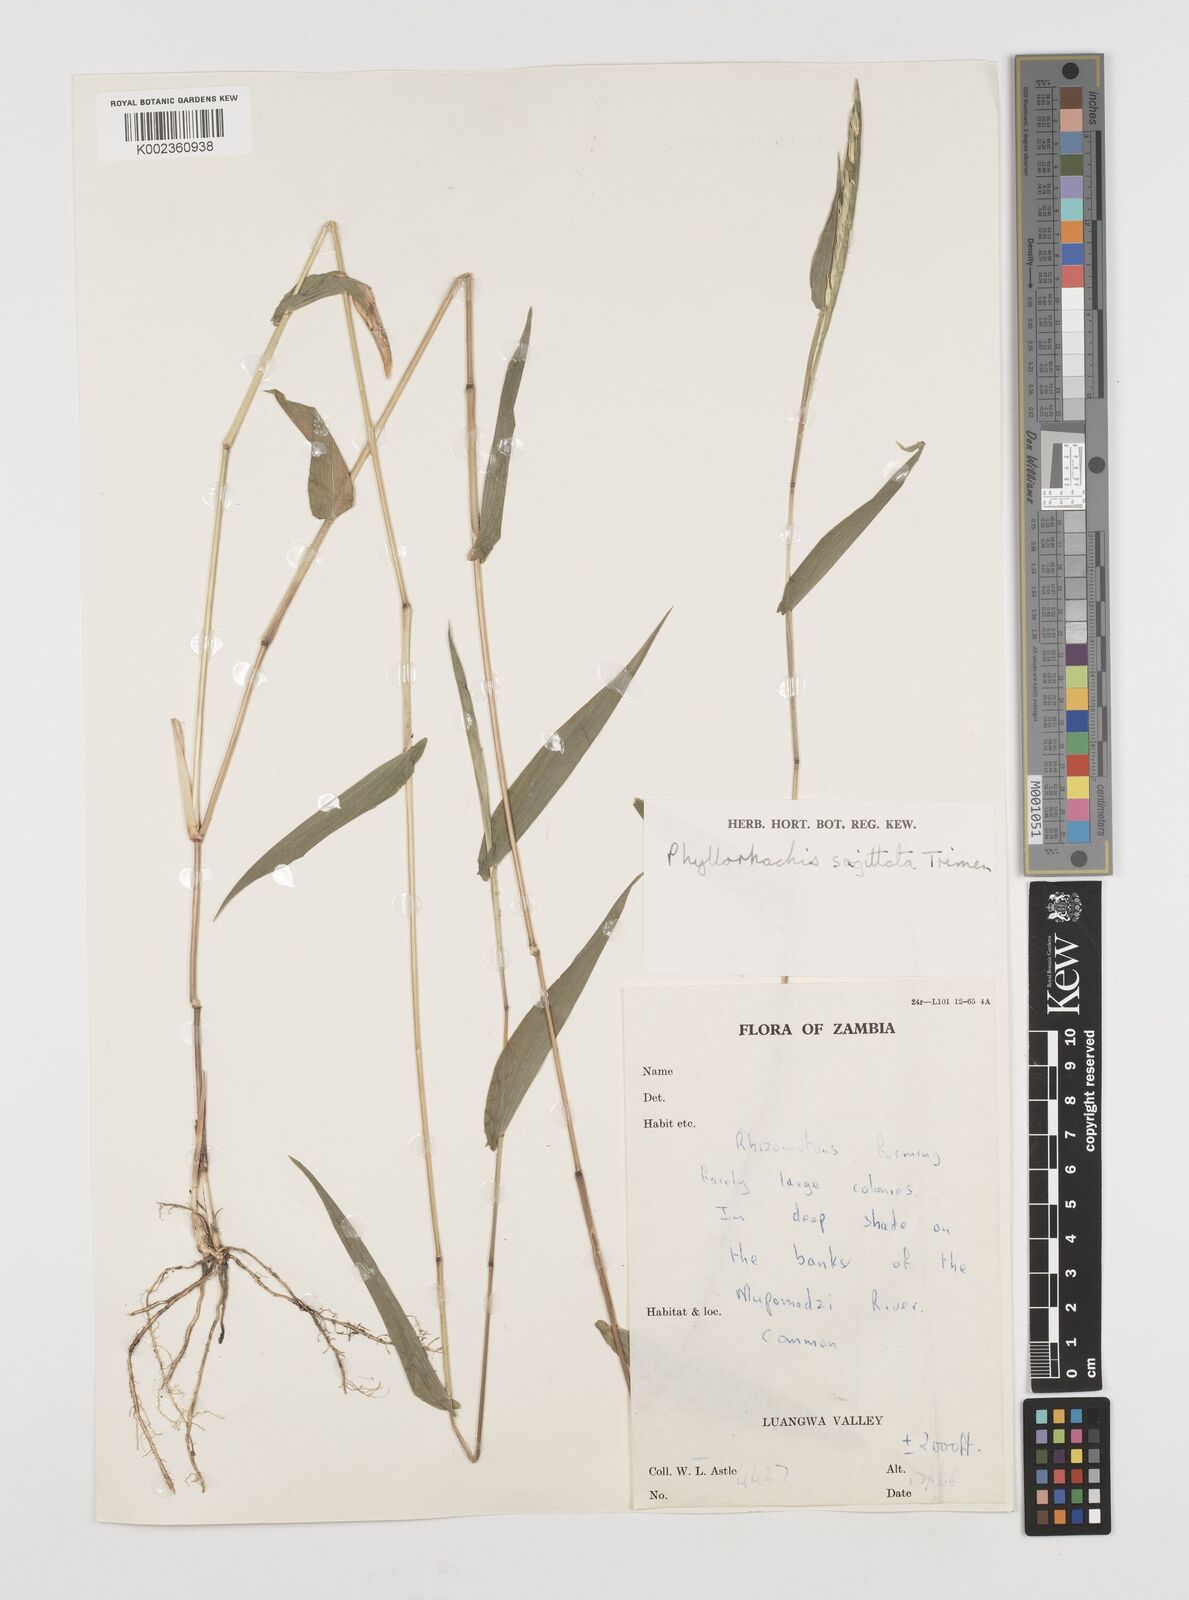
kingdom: Plantae
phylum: Tracheophyta
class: Liliopsida
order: Poales
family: Poaceae
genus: Phyllorachis
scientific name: Phyllorachis sagittata
